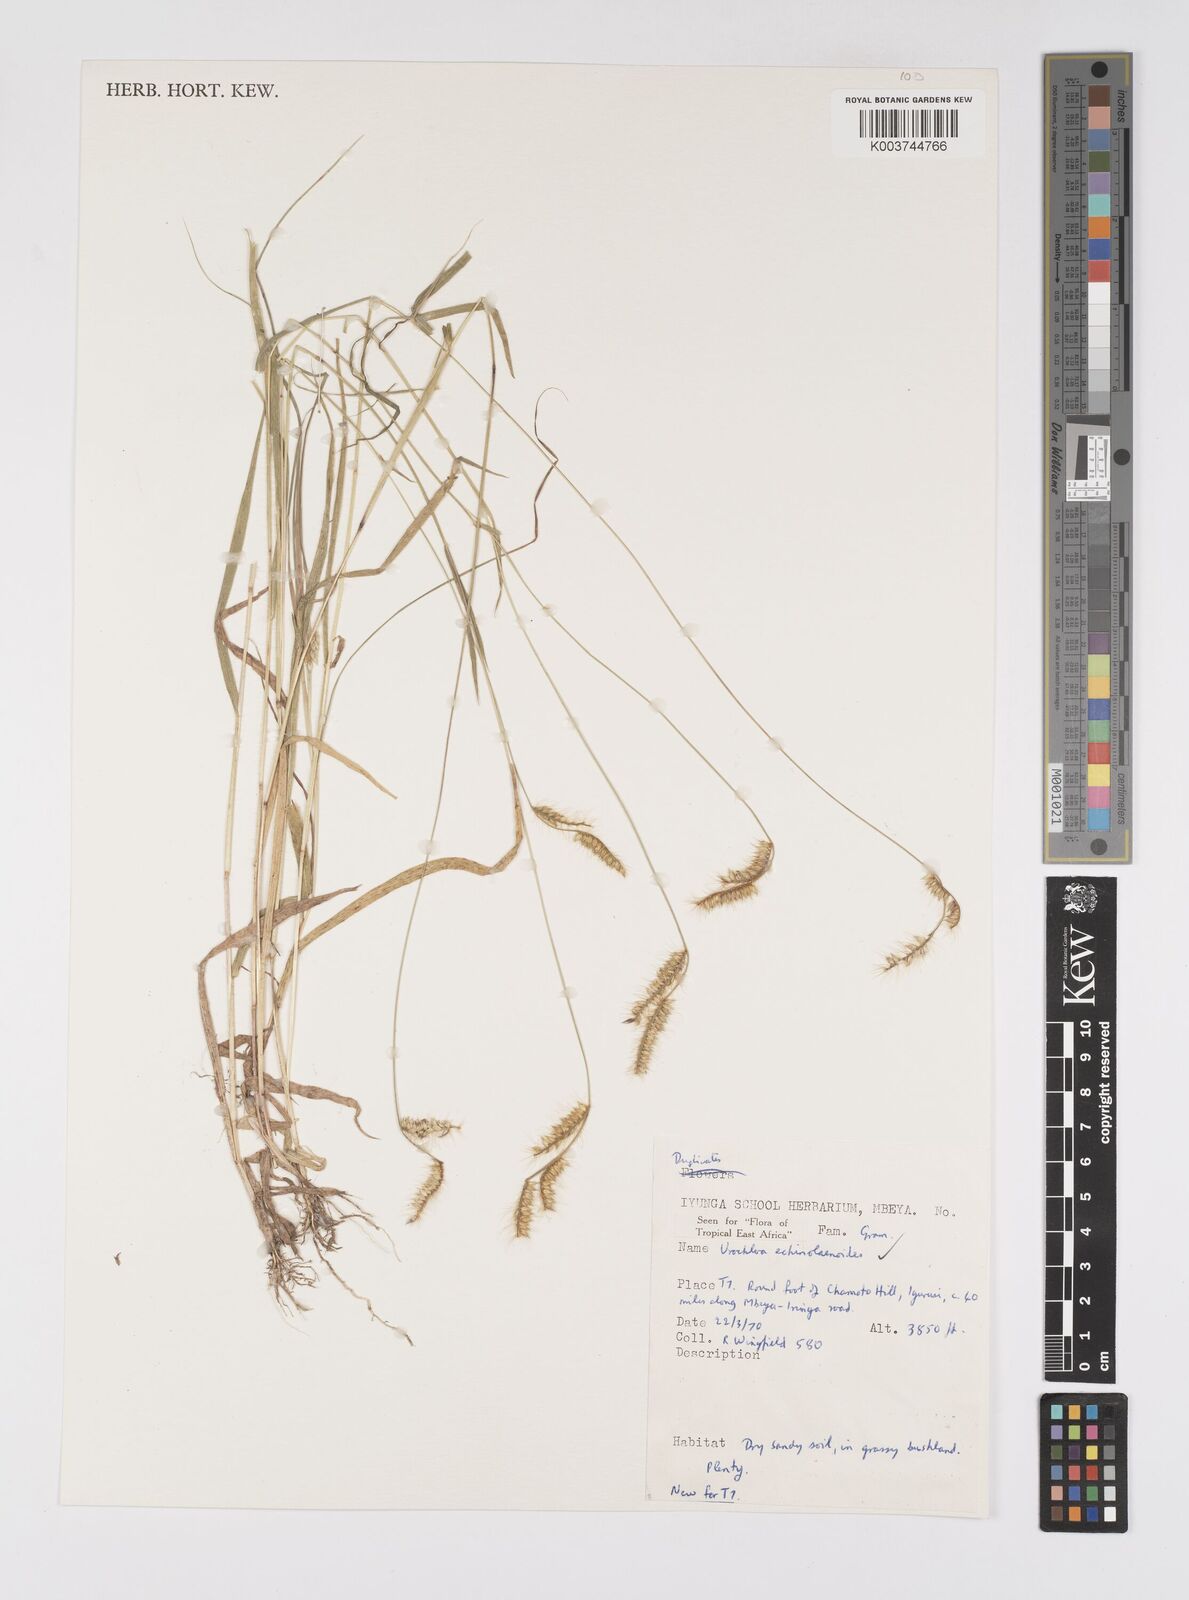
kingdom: Plantae
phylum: Tracheophyta
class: Liliopsida
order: Poales
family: Poaceae
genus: Urochloa
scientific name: Urochloa echinolaenoides
